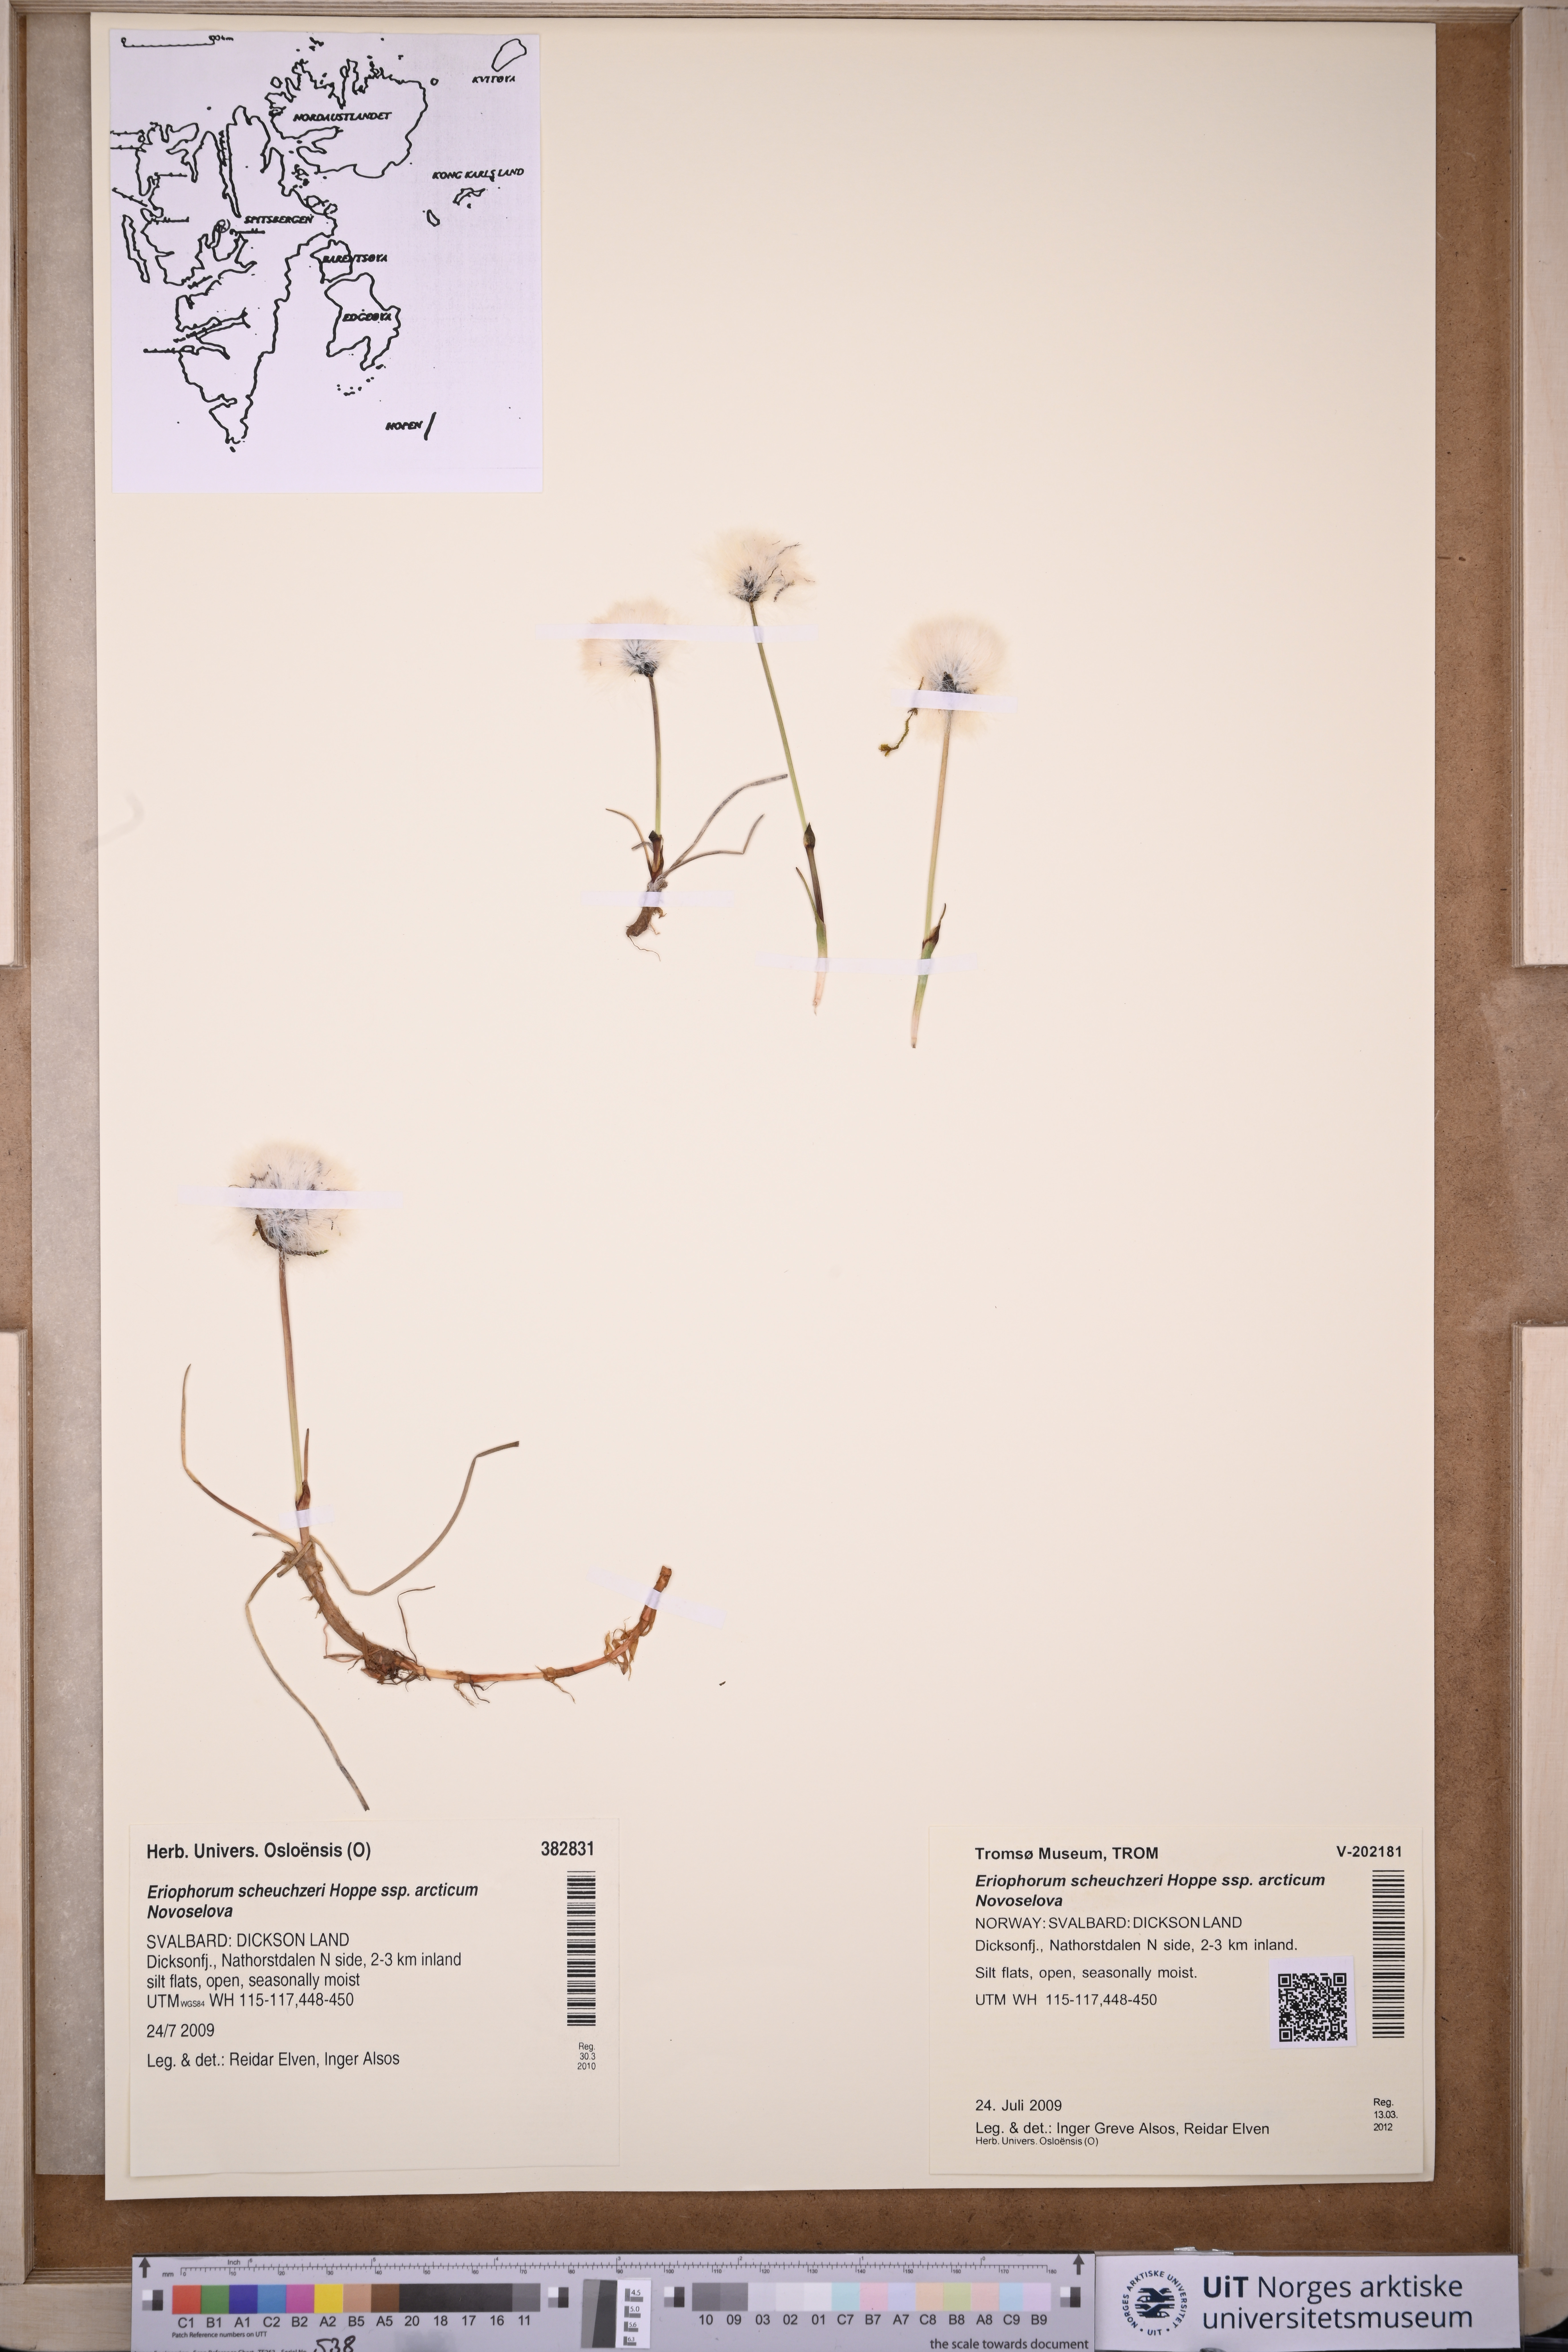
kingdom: Plantae
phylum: Tracheophyta
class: Liliopsida
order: Poales
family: Cyperaceae
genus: Eriophorum
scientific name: Eriophorum scheuchzeri
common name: Scheuchzer's cottongrass
